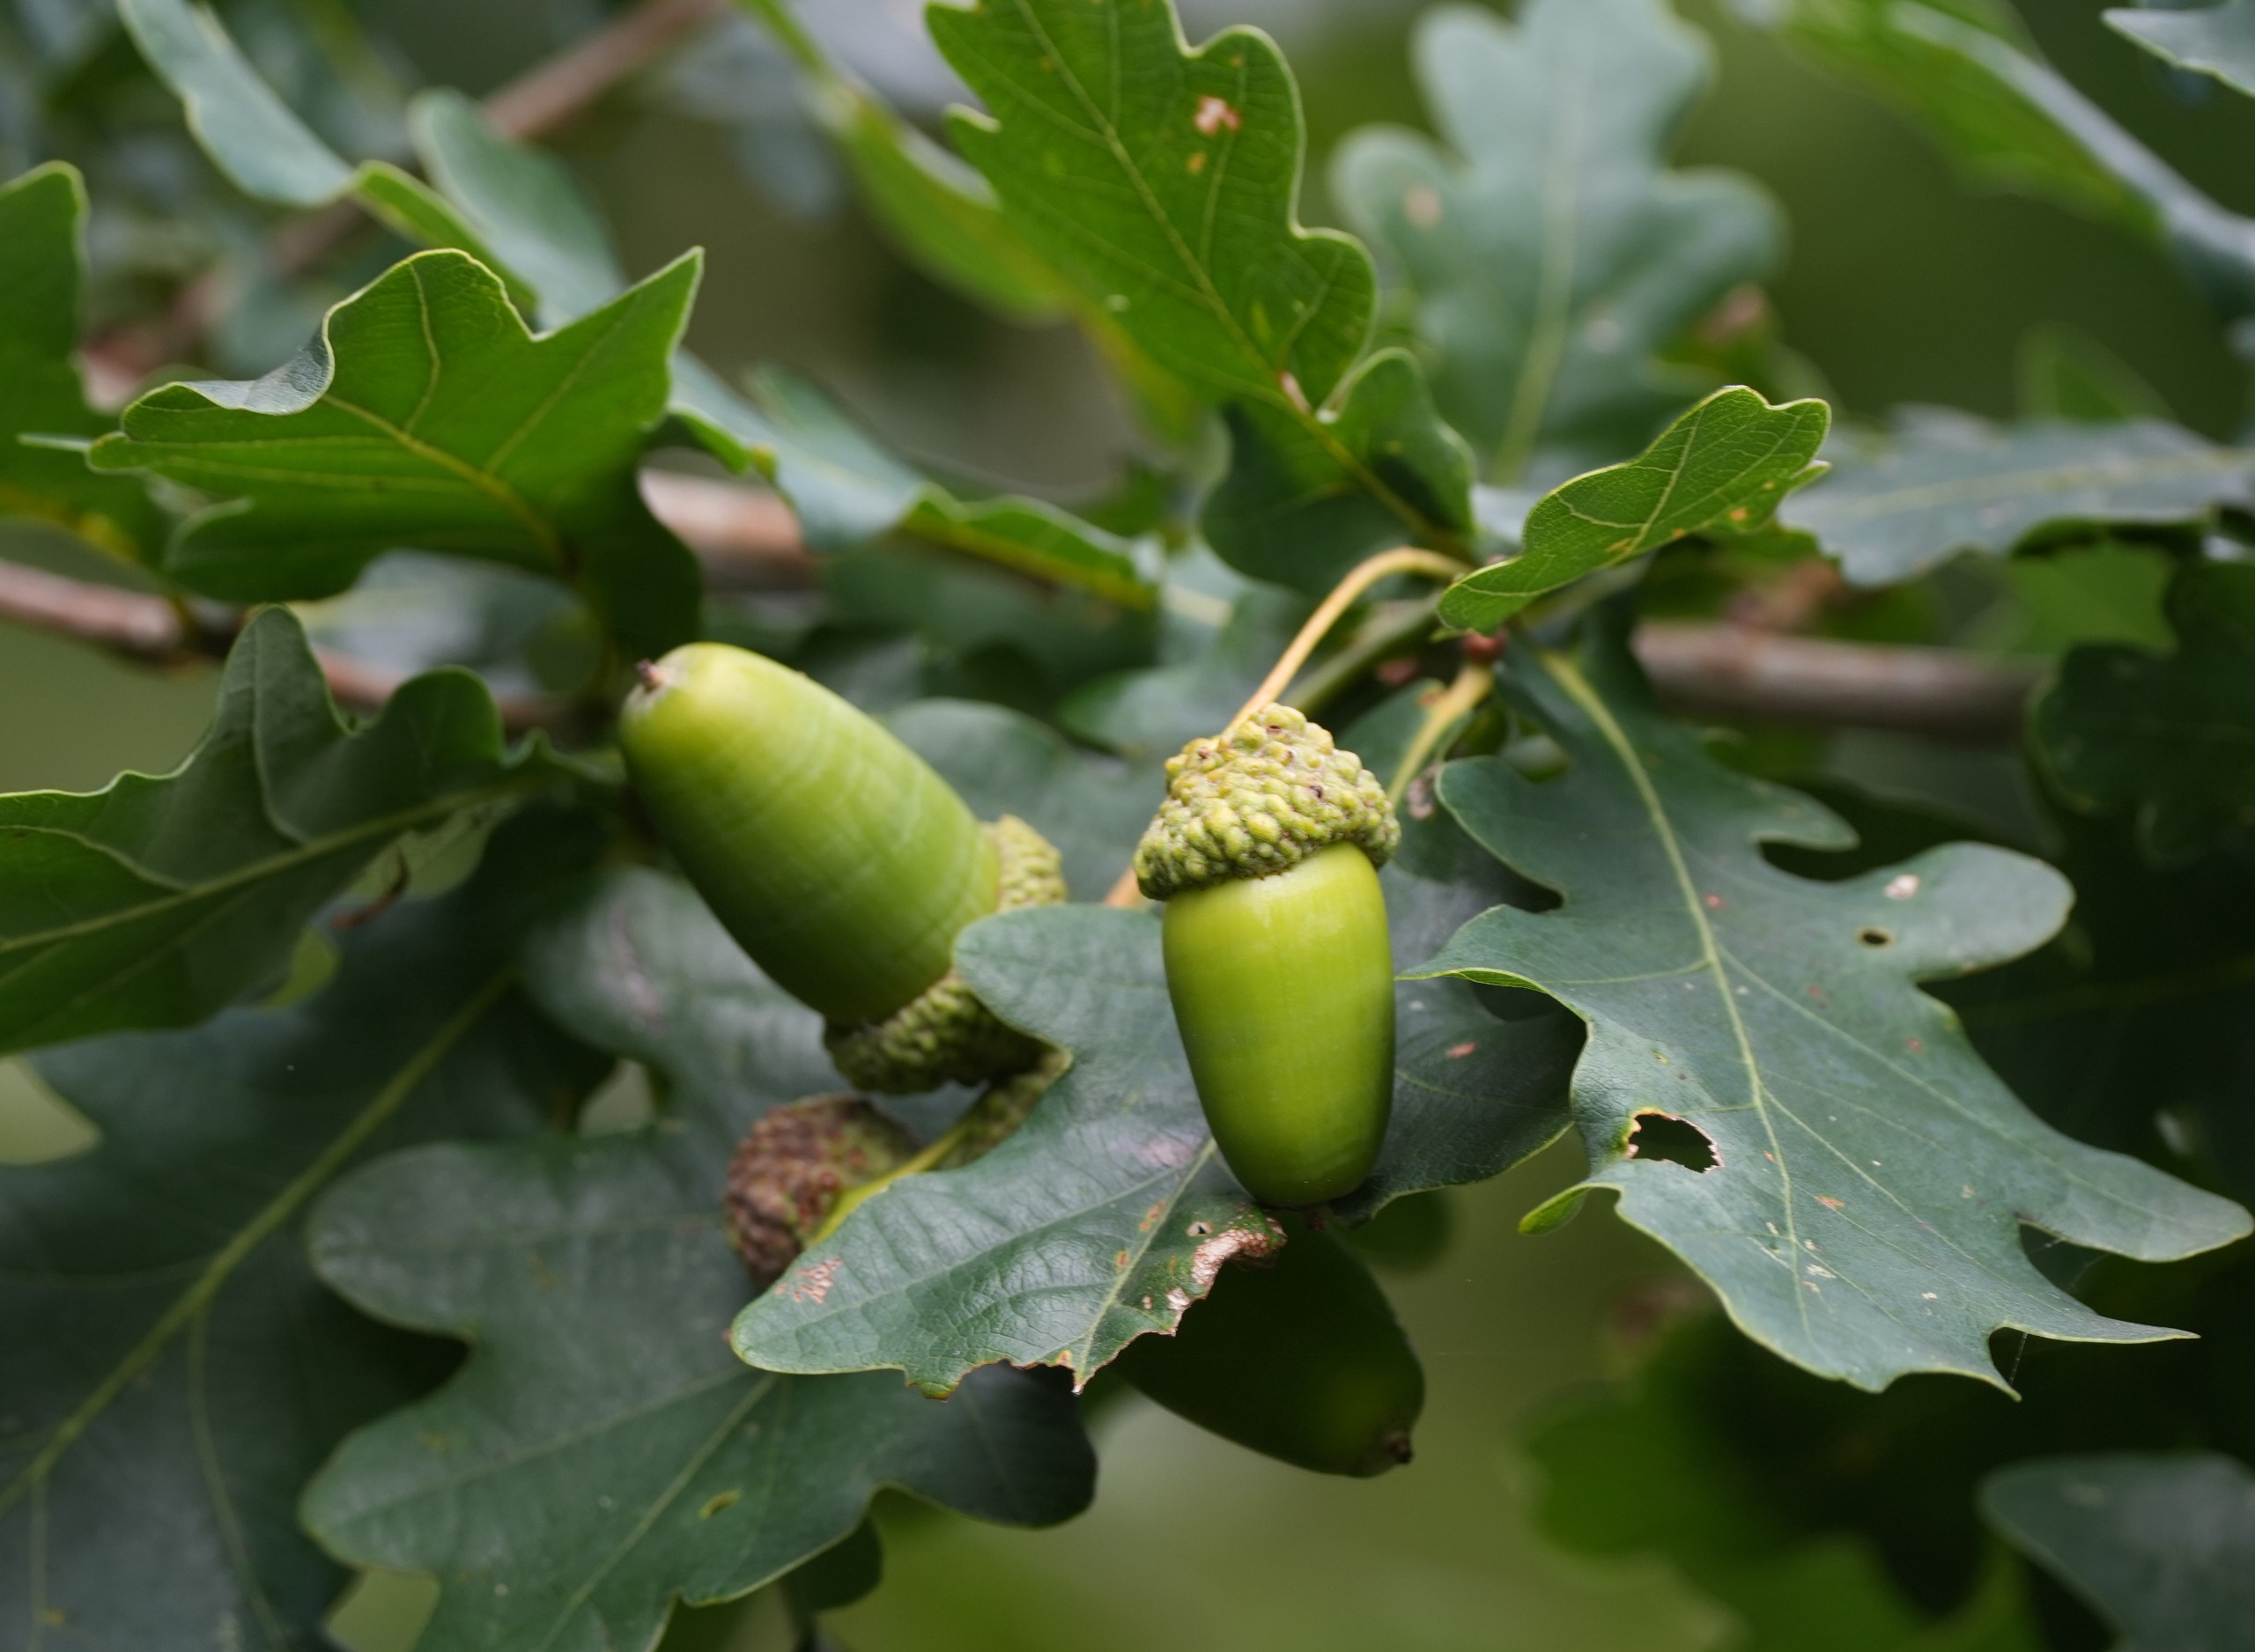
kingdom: Plantae
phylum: Tracheophyta
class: Magnoliopsida
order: Fagales
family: Fagaceae
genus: Quercus
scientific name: Quercus robur
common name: Stilk-eg/almindelig eg
